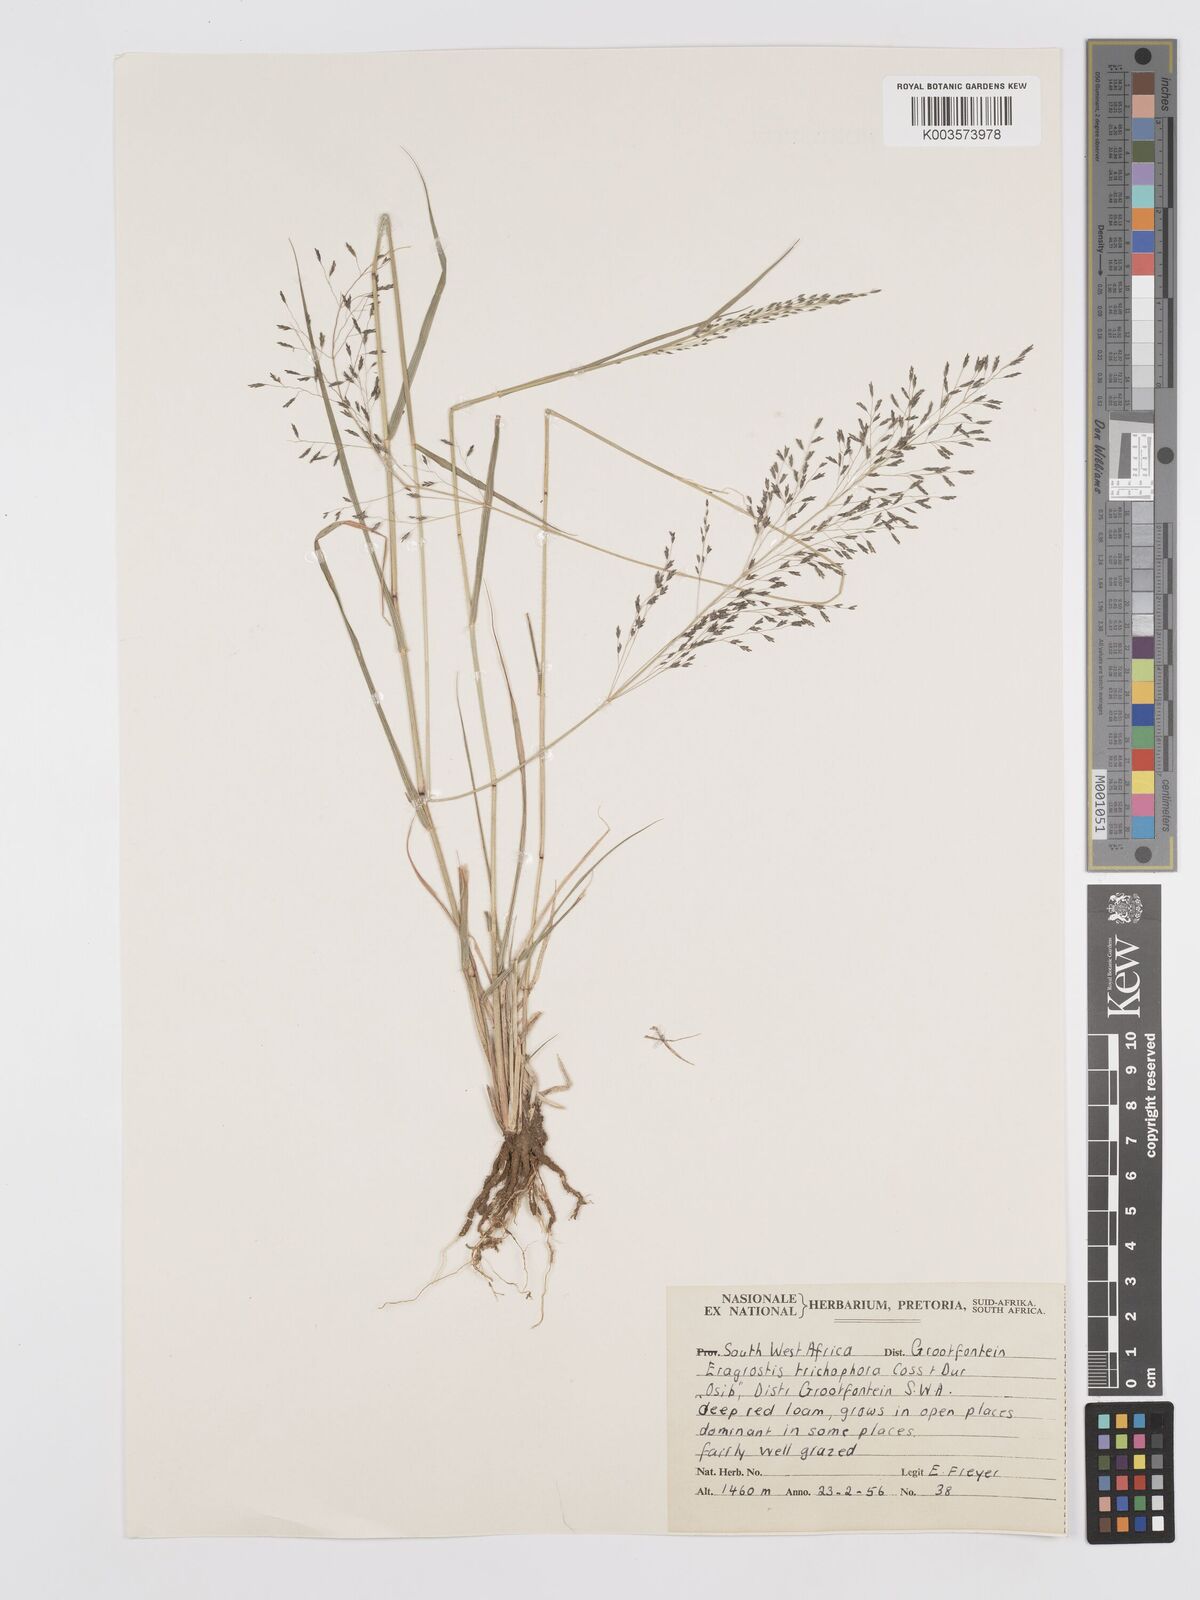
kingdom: Plantae
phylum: Tracheophyta
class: Liliopsida
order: Poales
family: Poaceae
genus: Eragrostis
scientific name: Eragrostis cylindriflora
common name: Cylinderflower lovegrass
